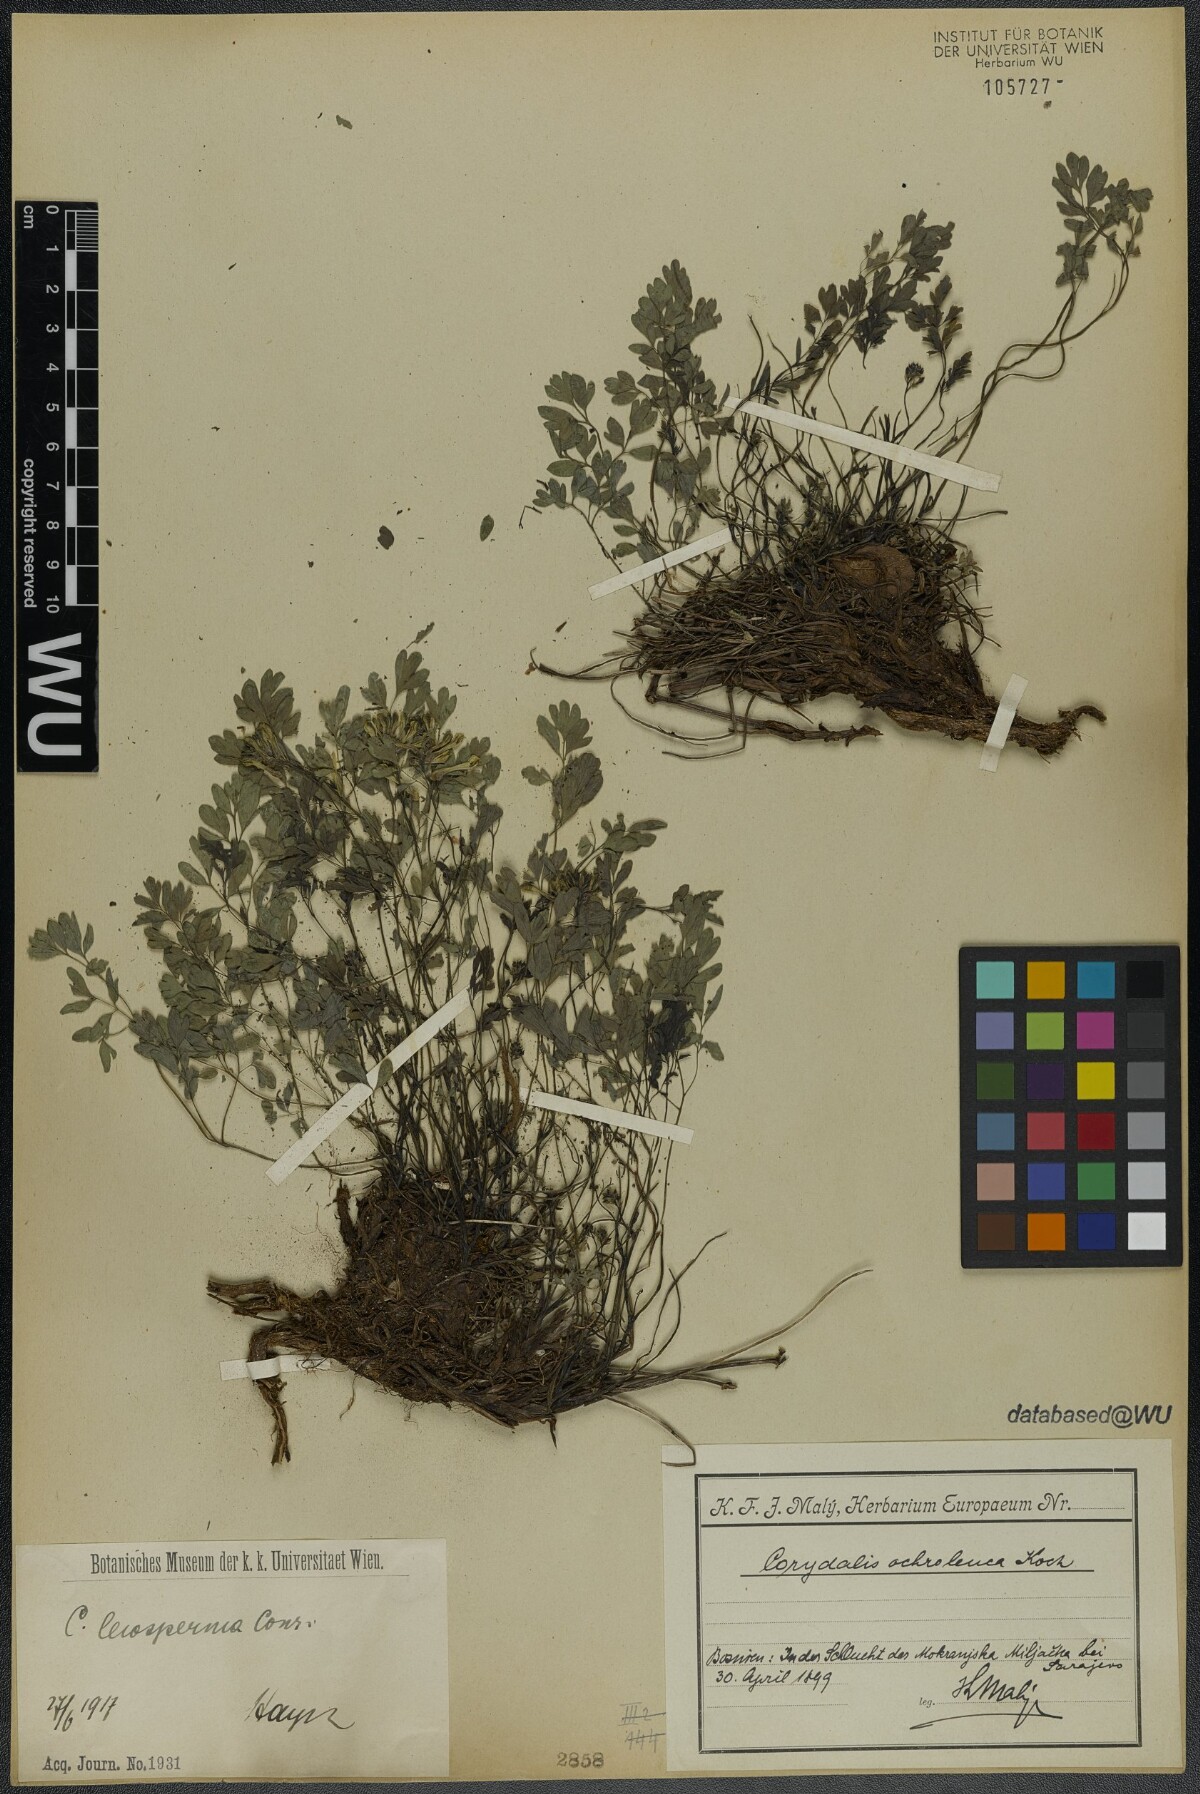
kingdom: Plantae
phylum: Tracheophyta
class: Magnoliopsida
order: Ranunculales
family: Papaveraceae
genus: Pseudofumaria
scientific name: Pseudofumaria alba
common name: Pale corydalis
